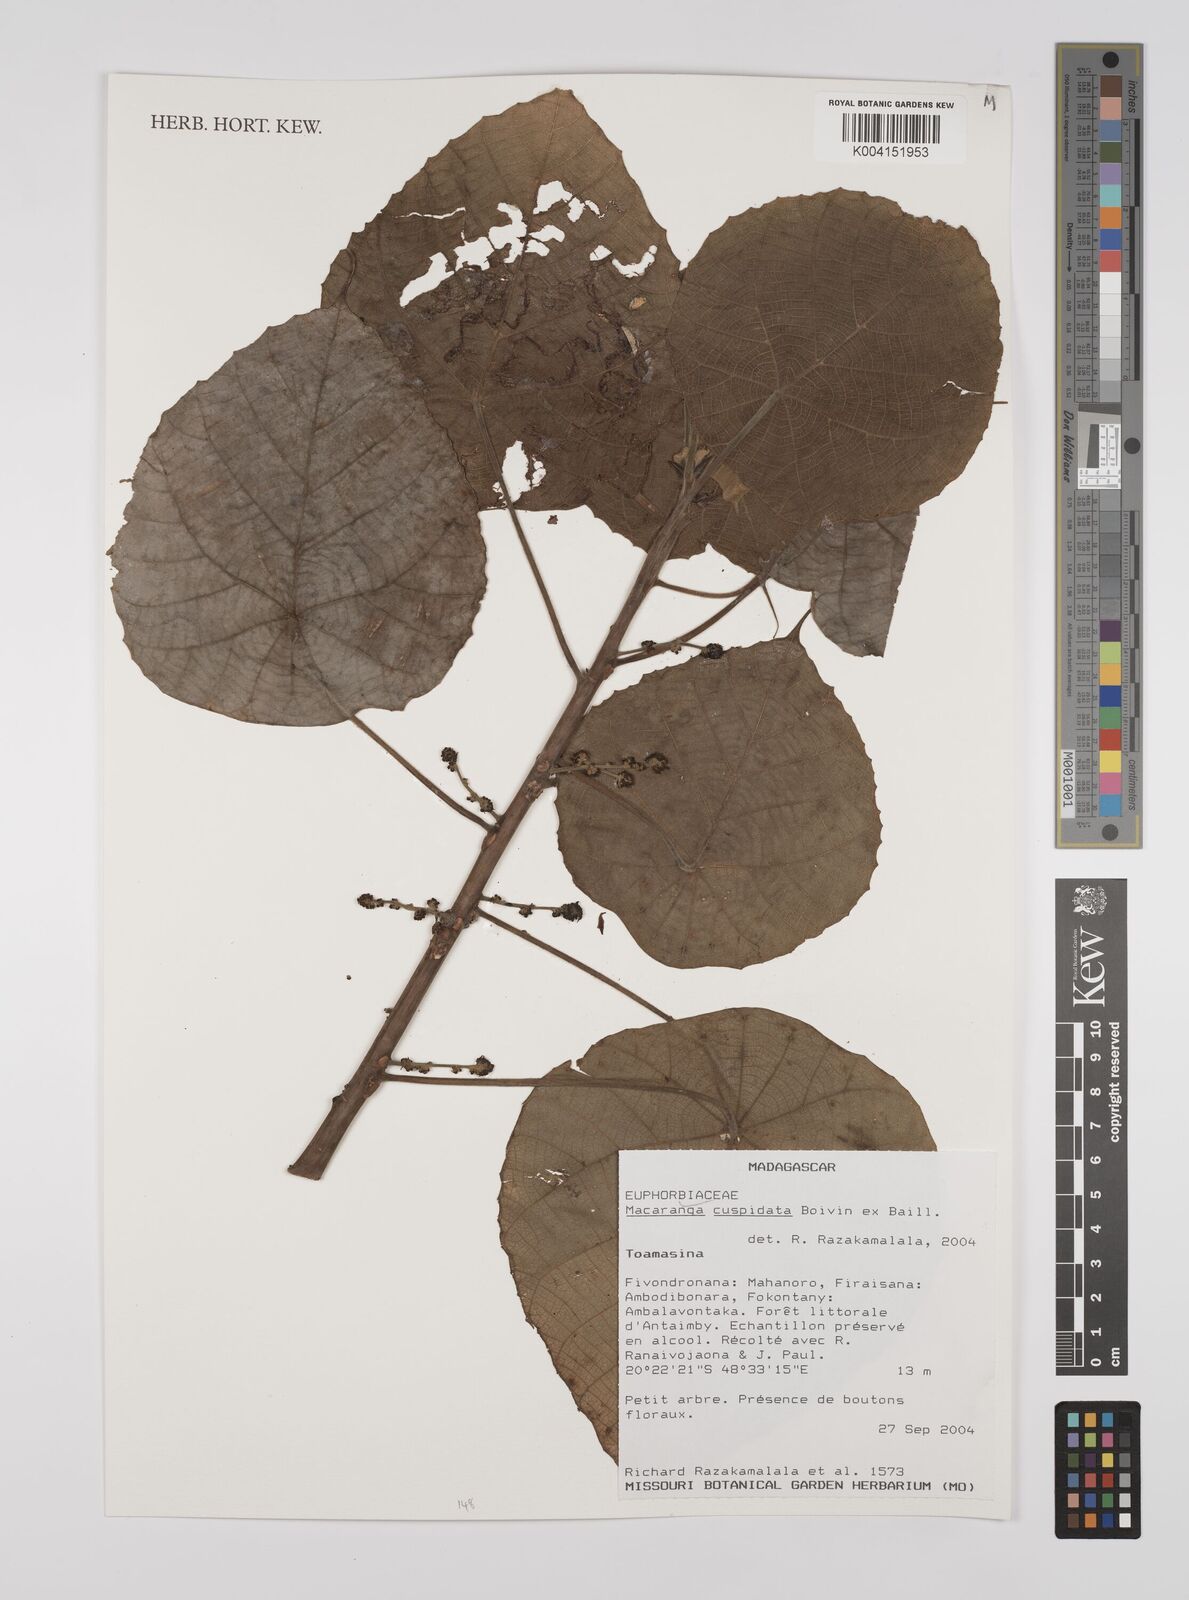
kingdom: Plantae
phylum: Tracheophyta
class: Magnoliopsida
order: Malpighiales
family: Euphorbiaceae
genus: Macaranga
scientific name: Macaranga cuspidata
